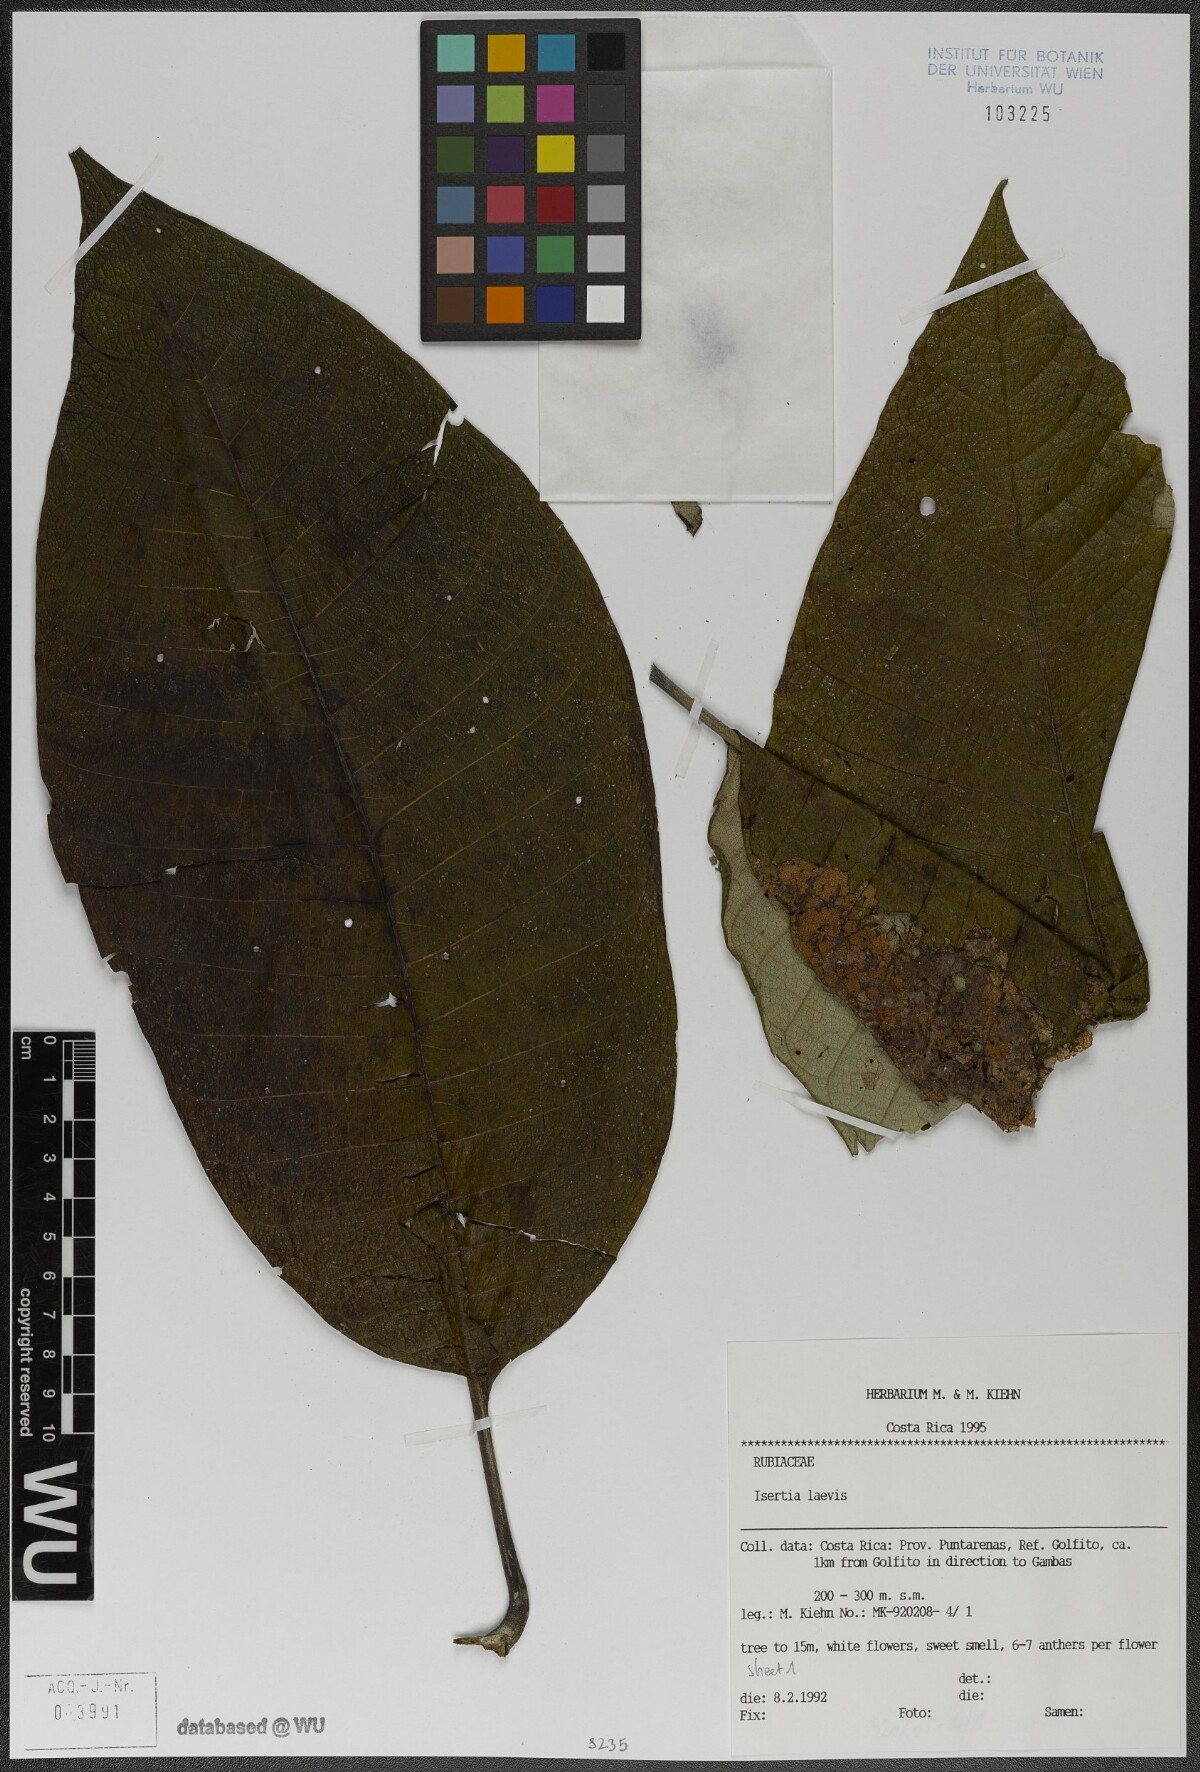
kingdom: Plantae
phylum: Tracheophyta
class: Magnoliopsida
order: Gentianales
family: Rubiaceae
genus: Isertia
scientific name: Isertia laevis
